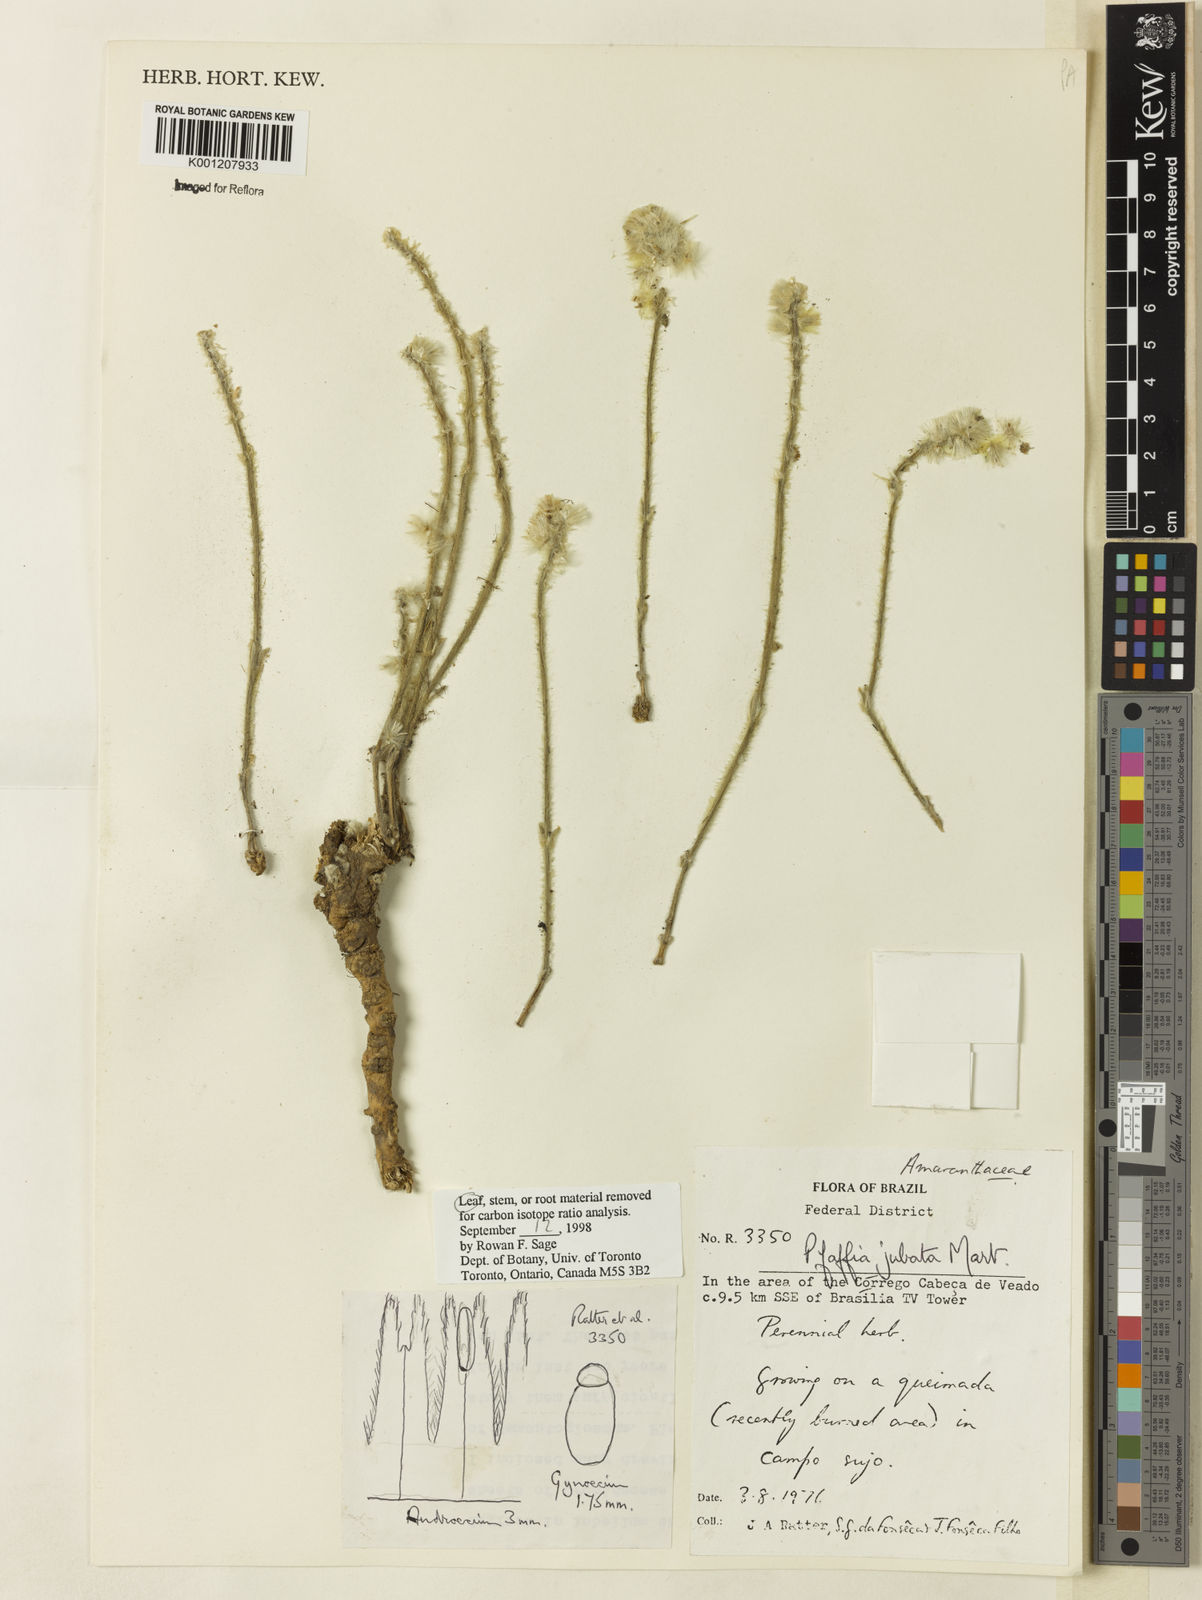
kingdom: Plantae
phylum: Tracheophyta
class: Magnoliopsida
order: Caryophyllales
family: Amaranthaceae
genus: Pfaffia
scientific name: Pfaffia jubata
